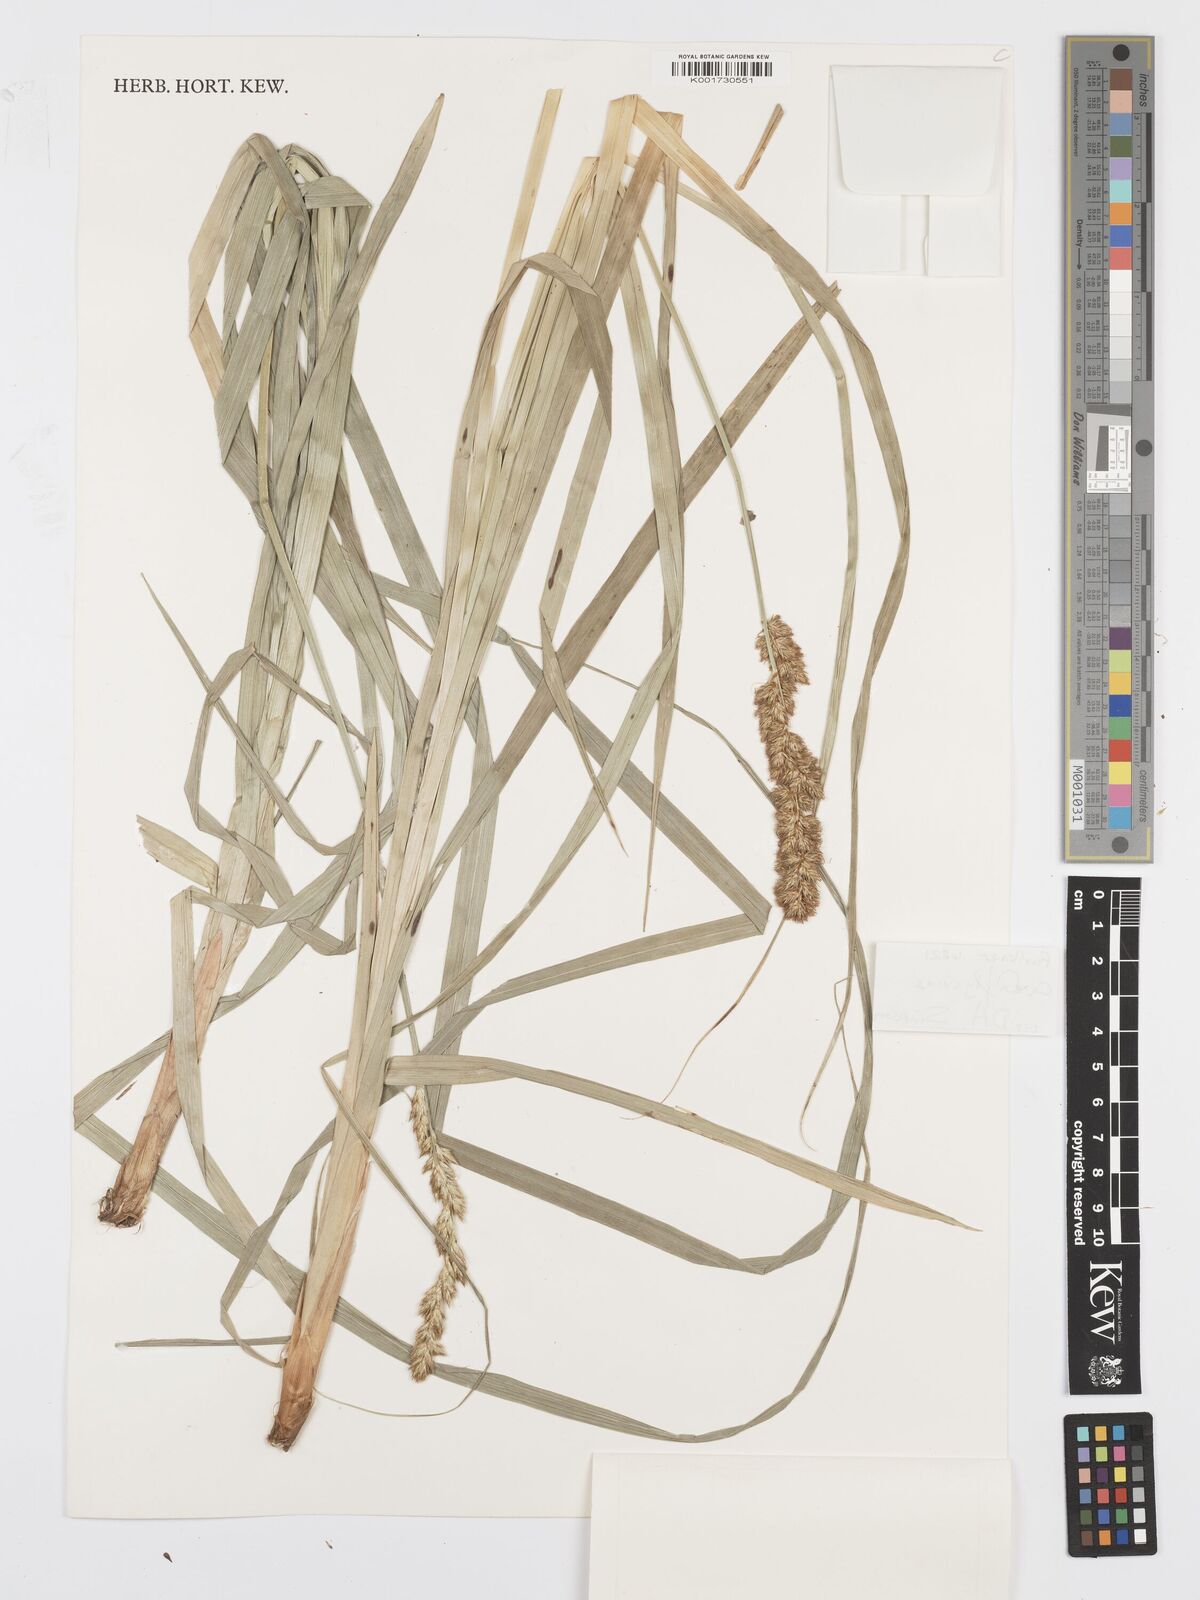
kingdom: Plantae
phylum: Tracheophyta
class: Liliopsida
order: Poales
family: Cyperaceae
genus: Carex
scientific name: Carex lycurus
